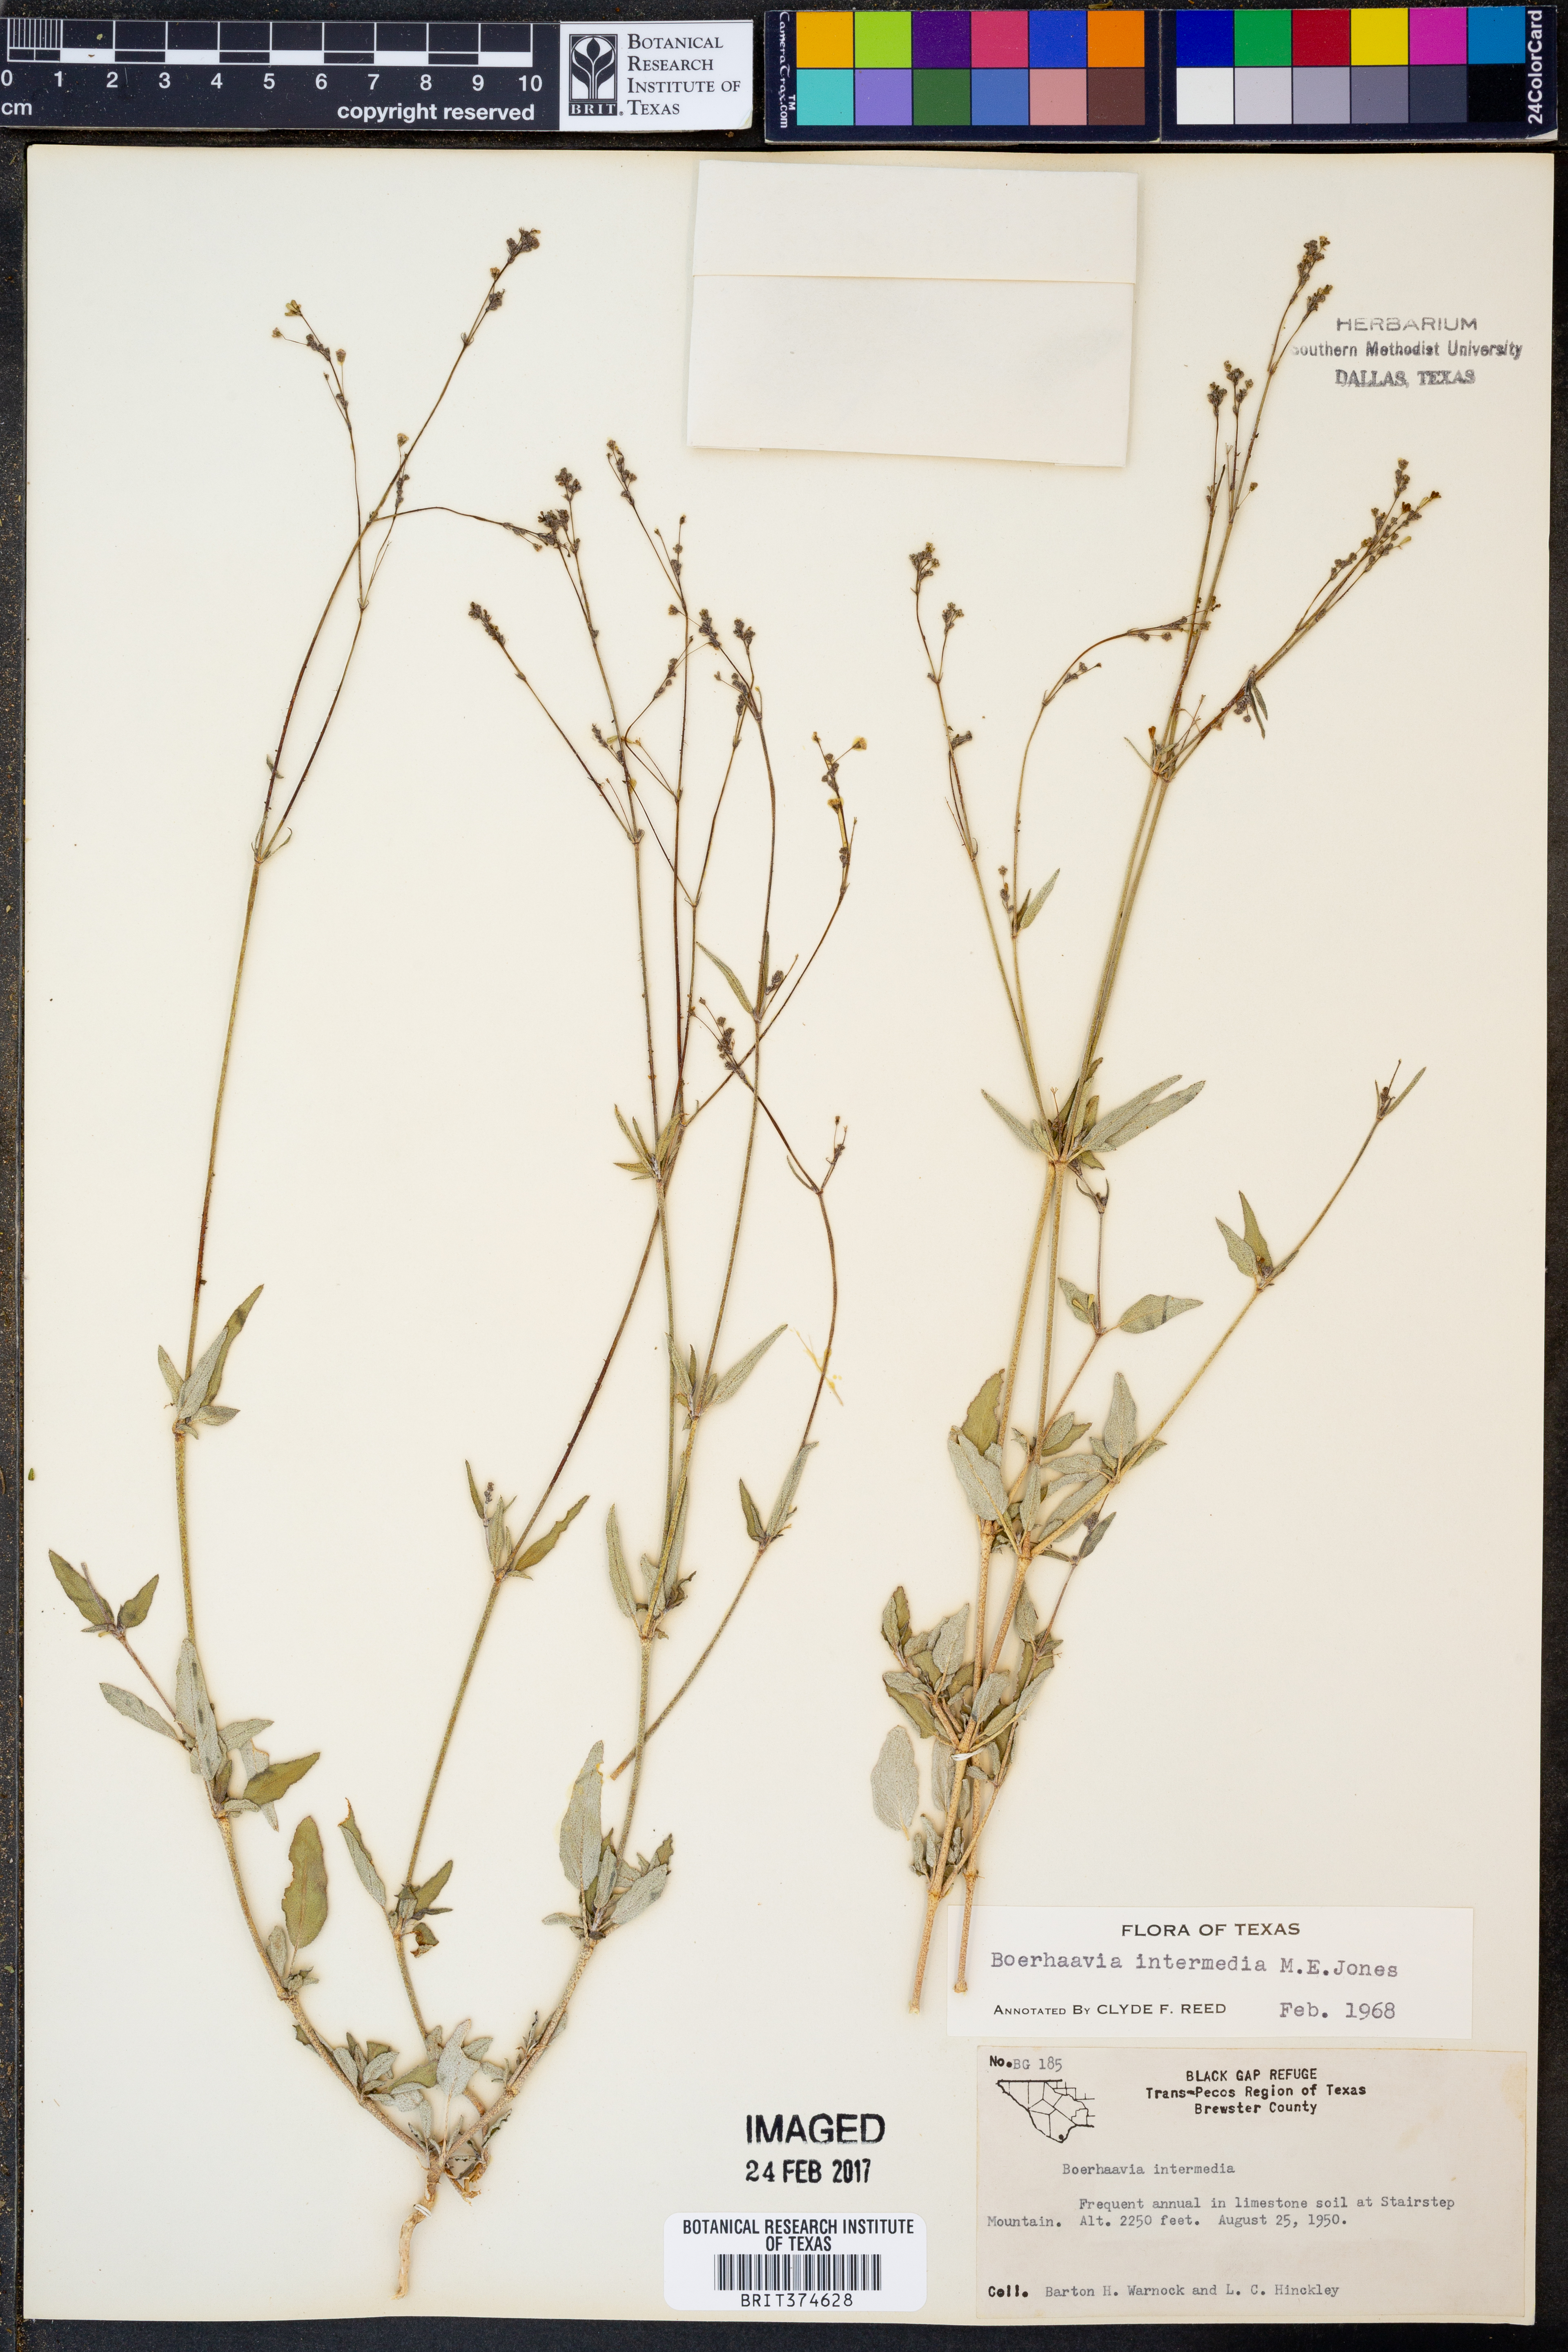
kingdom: Plantae
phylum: Tracheophyta
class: Magnoliopsida
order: Caryophyllales
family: Nyctaginaceae
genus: Boerhavia
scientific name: Boerhavia triquetra
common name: Creeping sticky-stem
